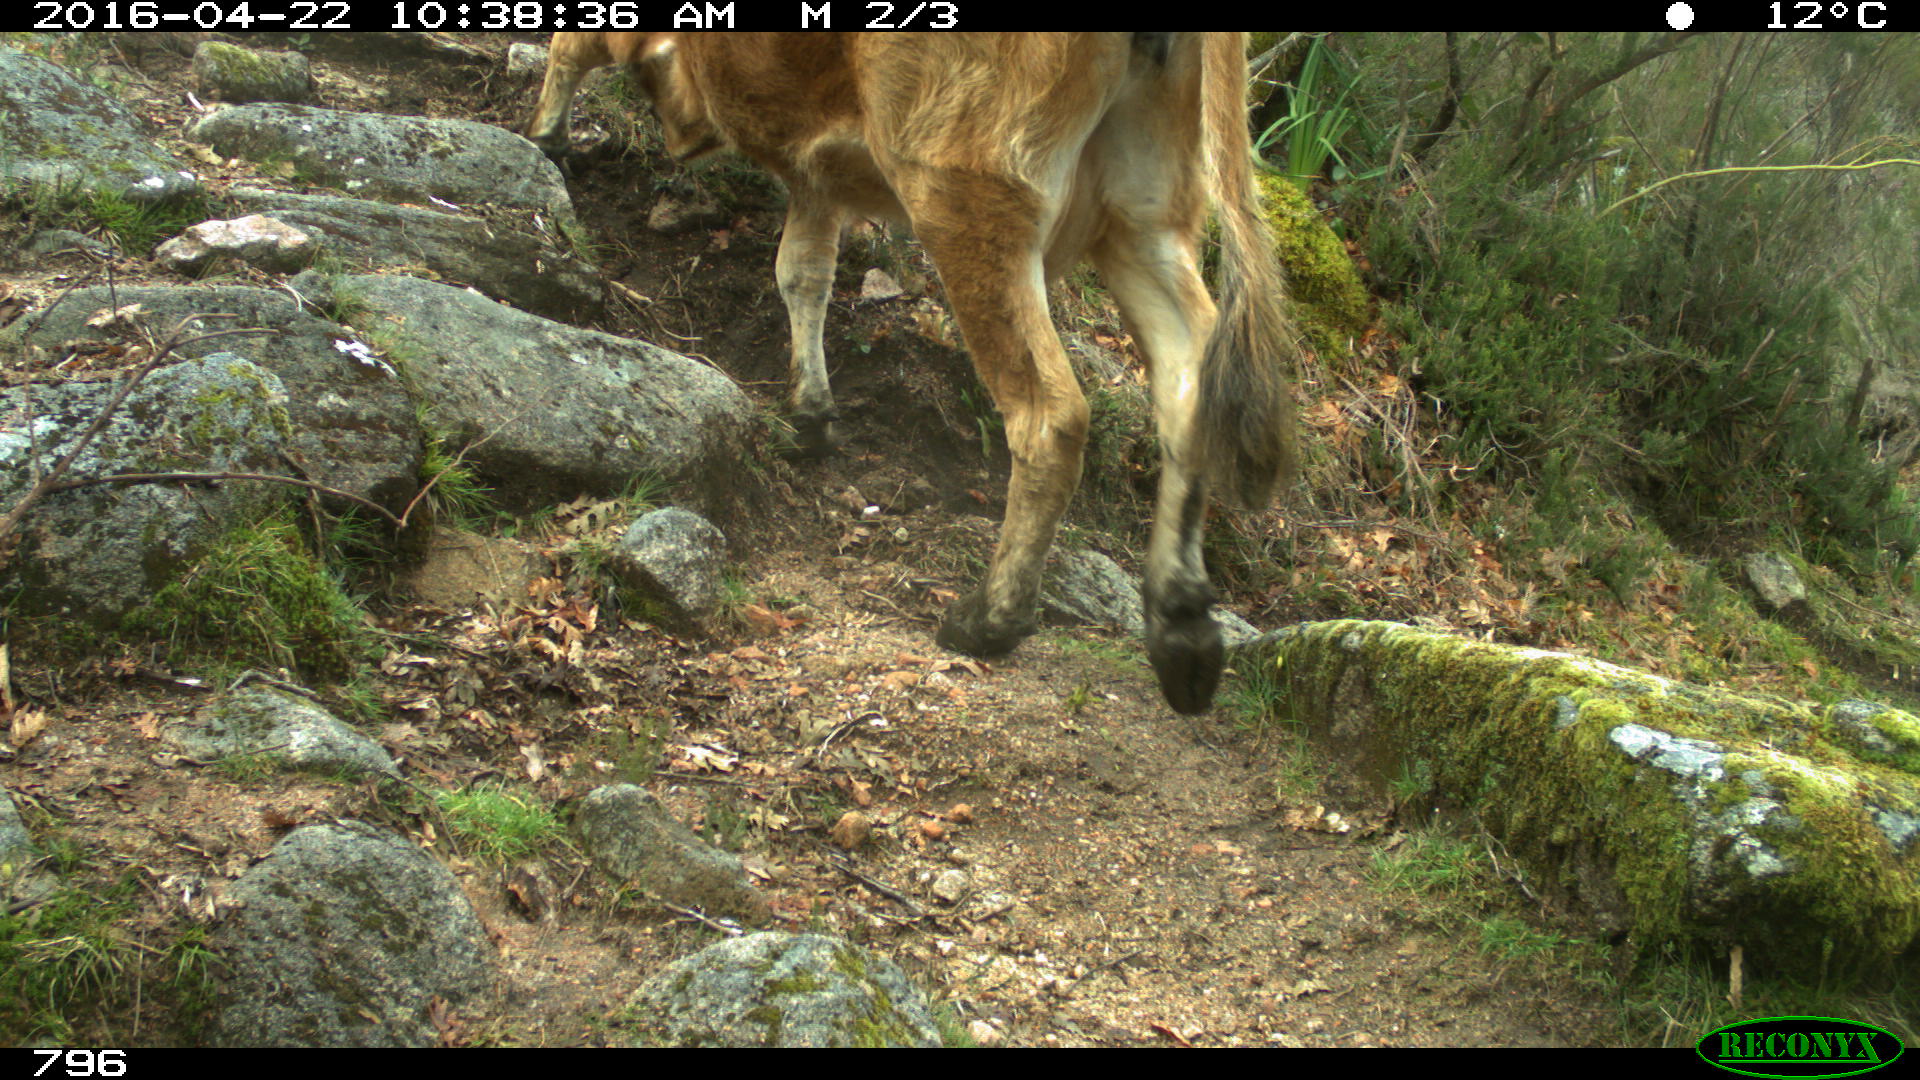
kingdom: Animalia
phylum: Chordata
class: Mammalia
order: Artiodactyla
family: Bovidae
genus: Bos
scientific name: Bos taurus
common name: Domesticated cattle
